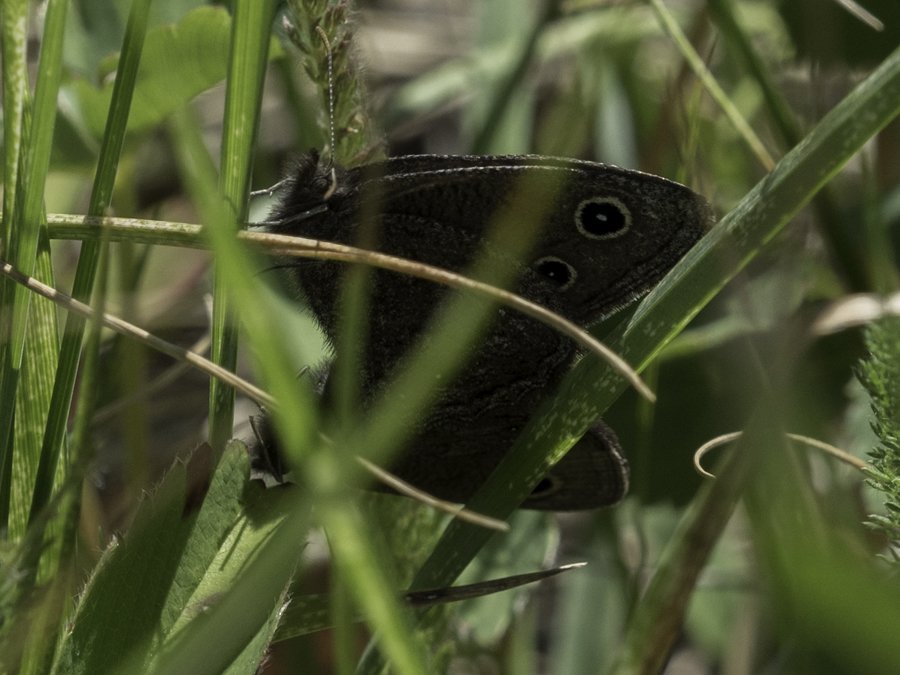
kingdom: Animalia
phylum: Arthropoda
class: Insecta
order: Lepidoptera
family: Nymphalidae
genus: Cercyonis
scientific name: Cercyonis oetus
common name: Small Wood-Nymph
